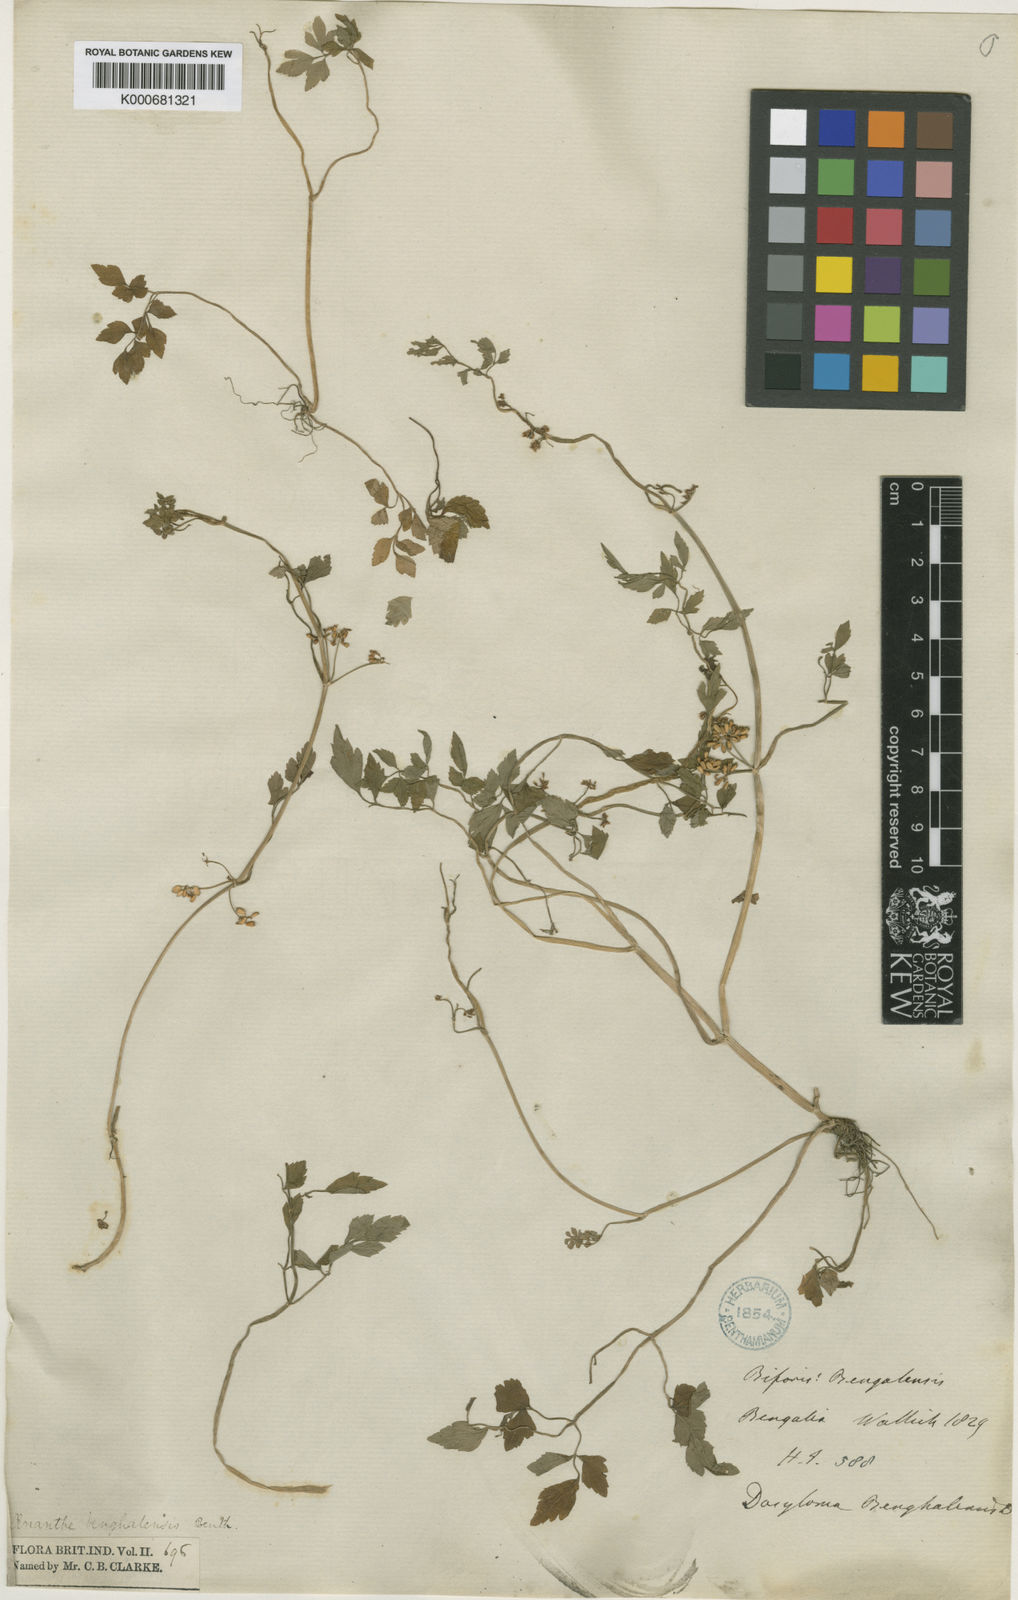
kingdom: Plantae
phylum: Tracheophyta
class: Magnoliopsida
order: Apiales
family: Apiaceae
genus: Oenanthe
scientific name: Oenanthe
